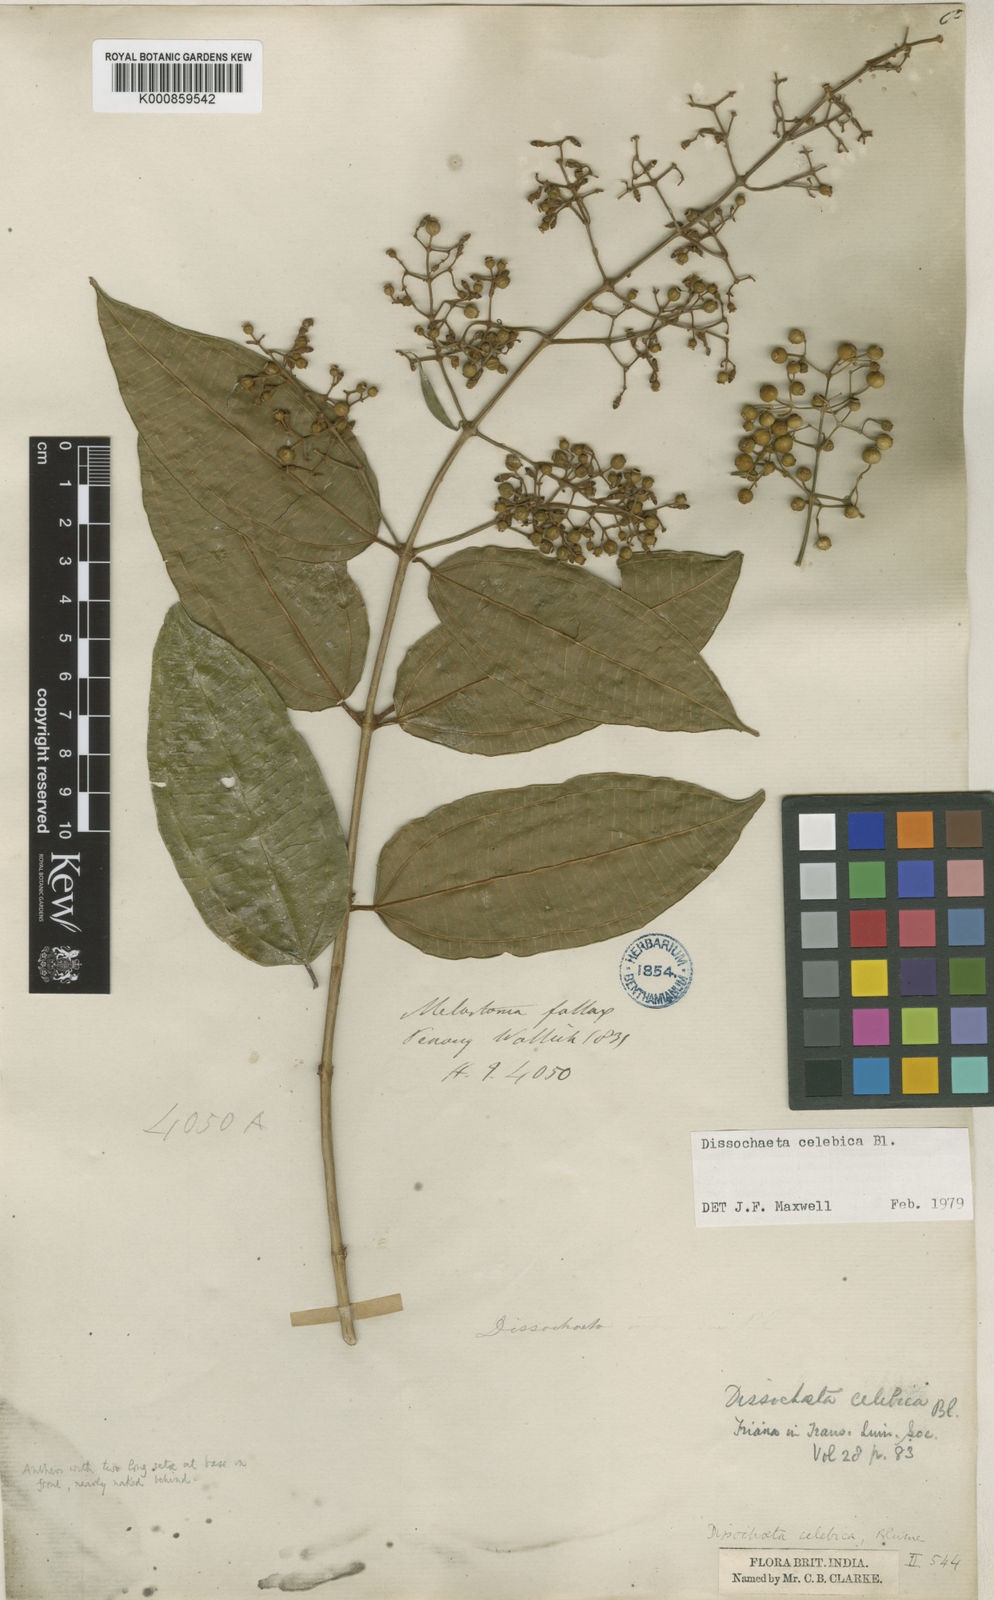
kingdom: Plantae
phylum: Tracheophyta
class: Magnoliopsida
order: Myrtales
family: Melastomataceae
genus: Dissochaeta
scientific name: Dissochaeta celebica
